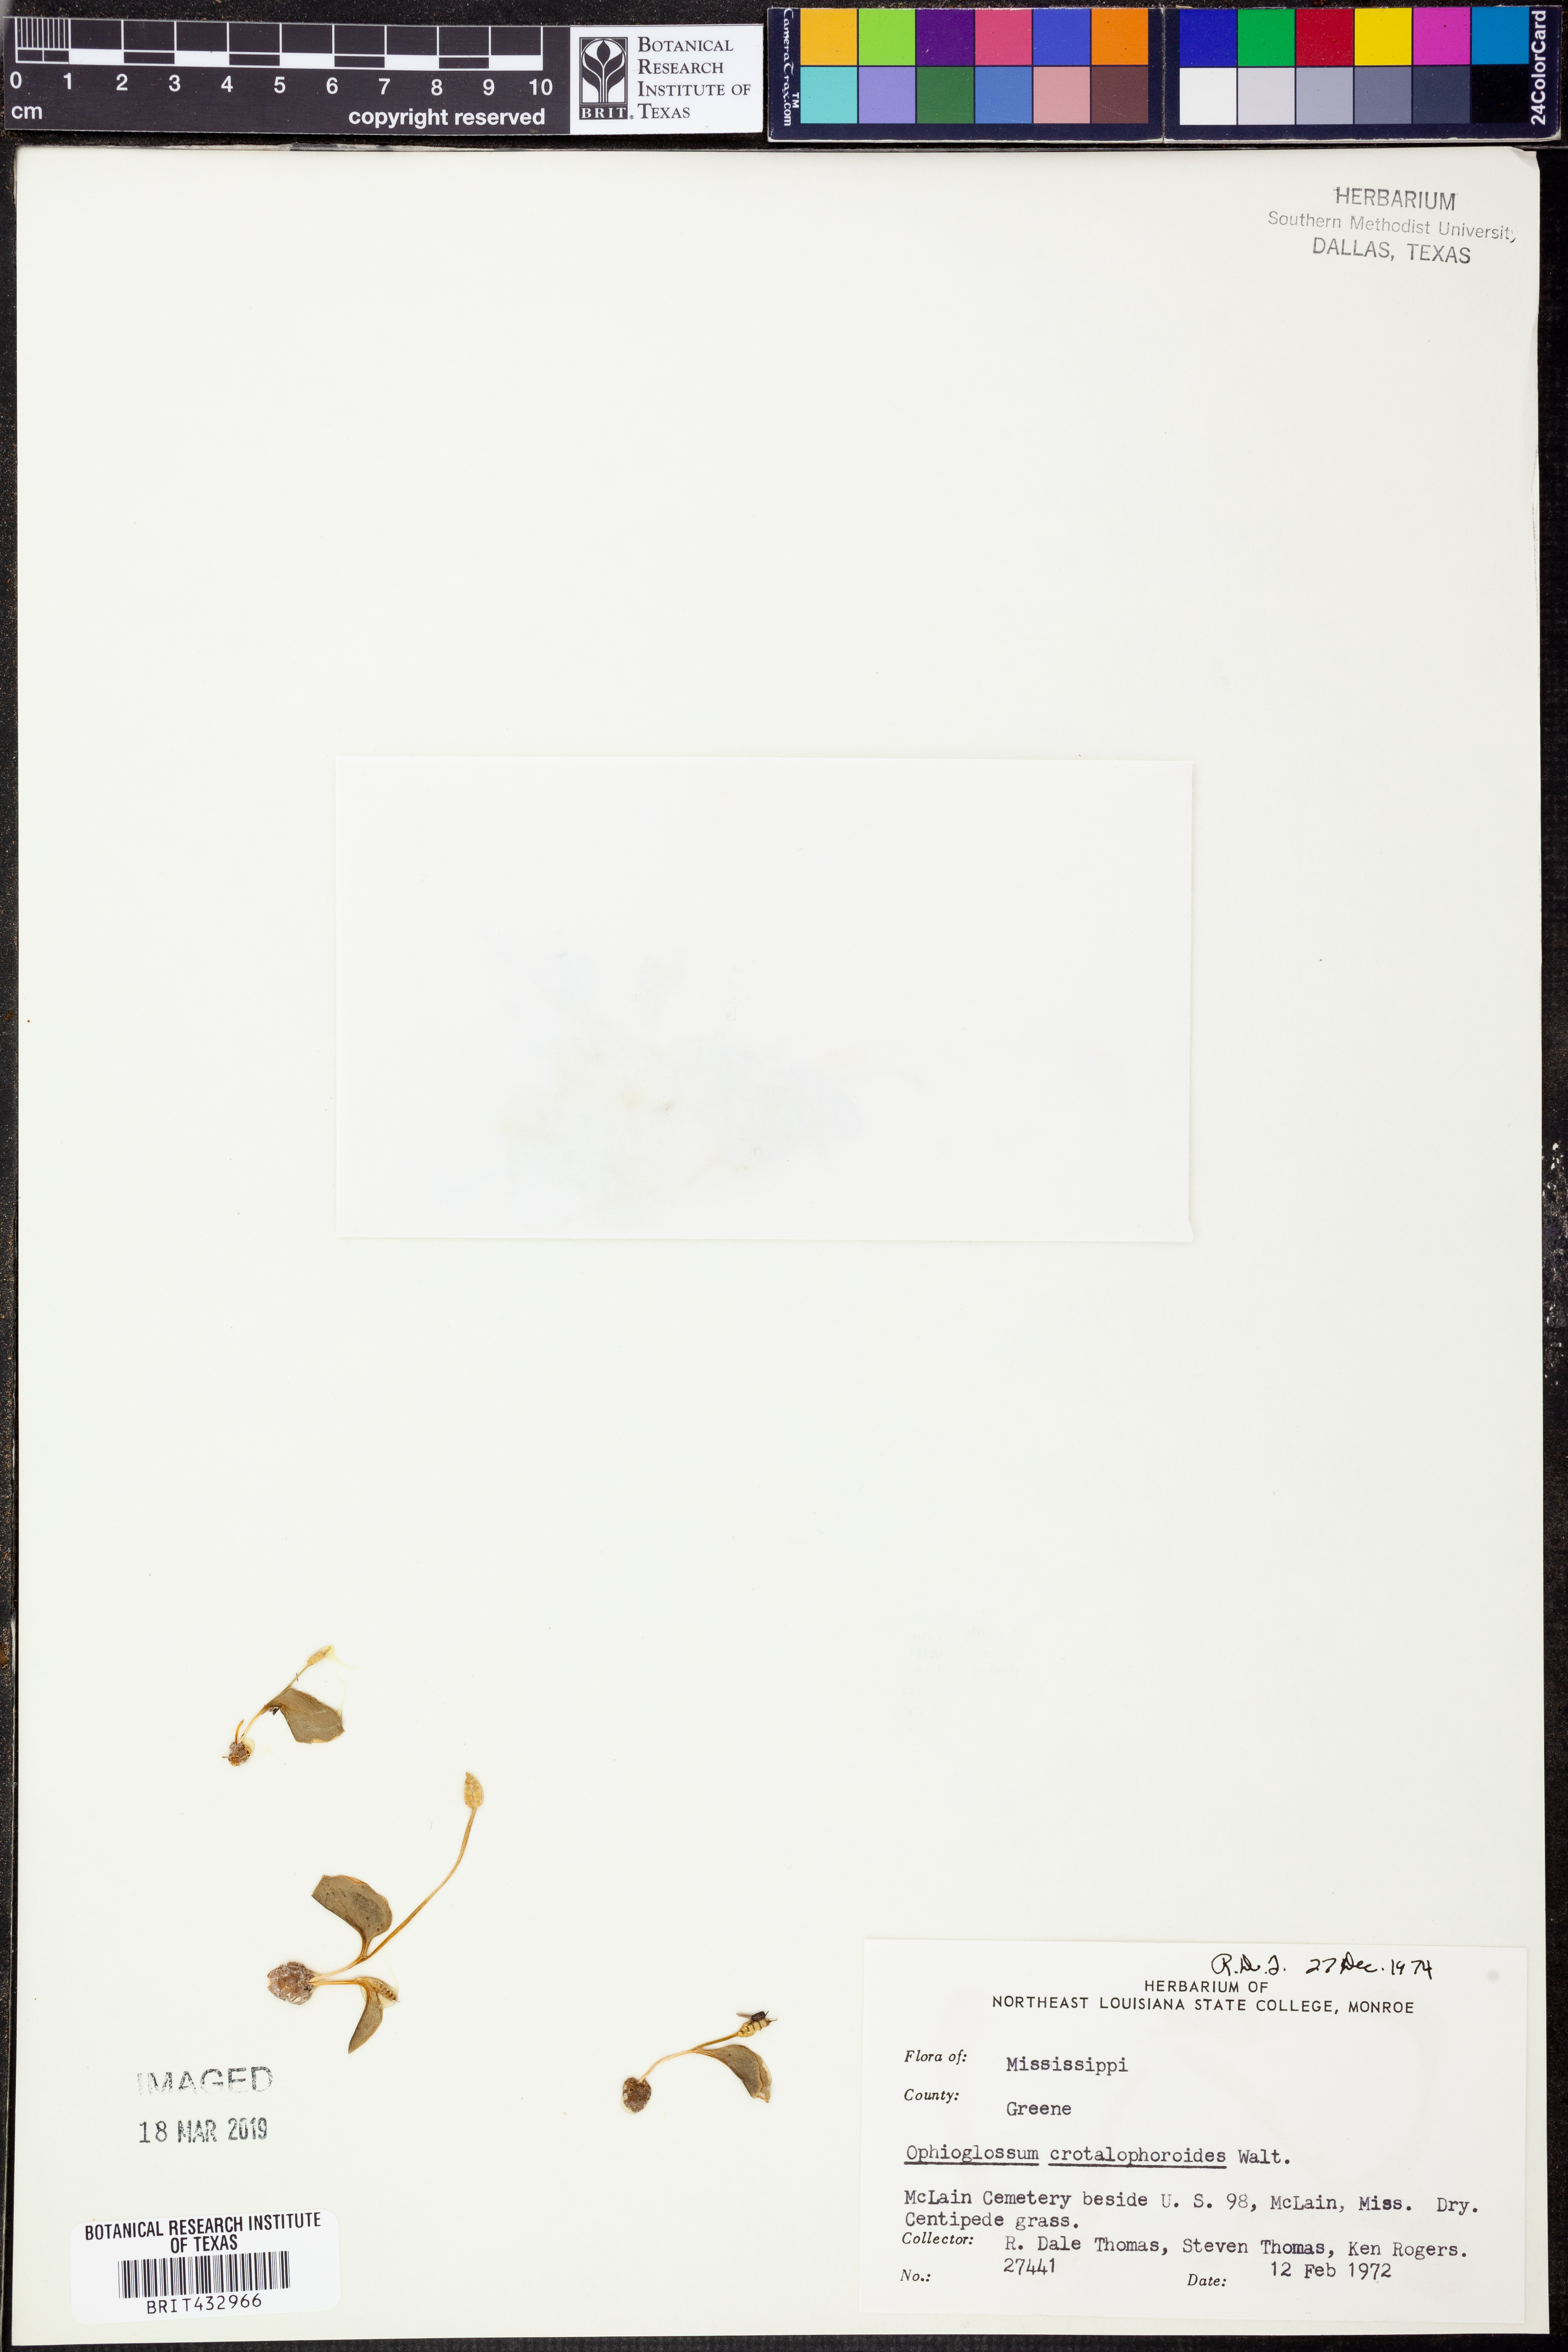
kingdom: Plantae
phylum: Tracheophyta
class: Polypodiopsida
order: Ophioglossales
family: Ophioglossaceae
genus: Ophioglossum
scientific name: Ophioglossum crotalophoroides
